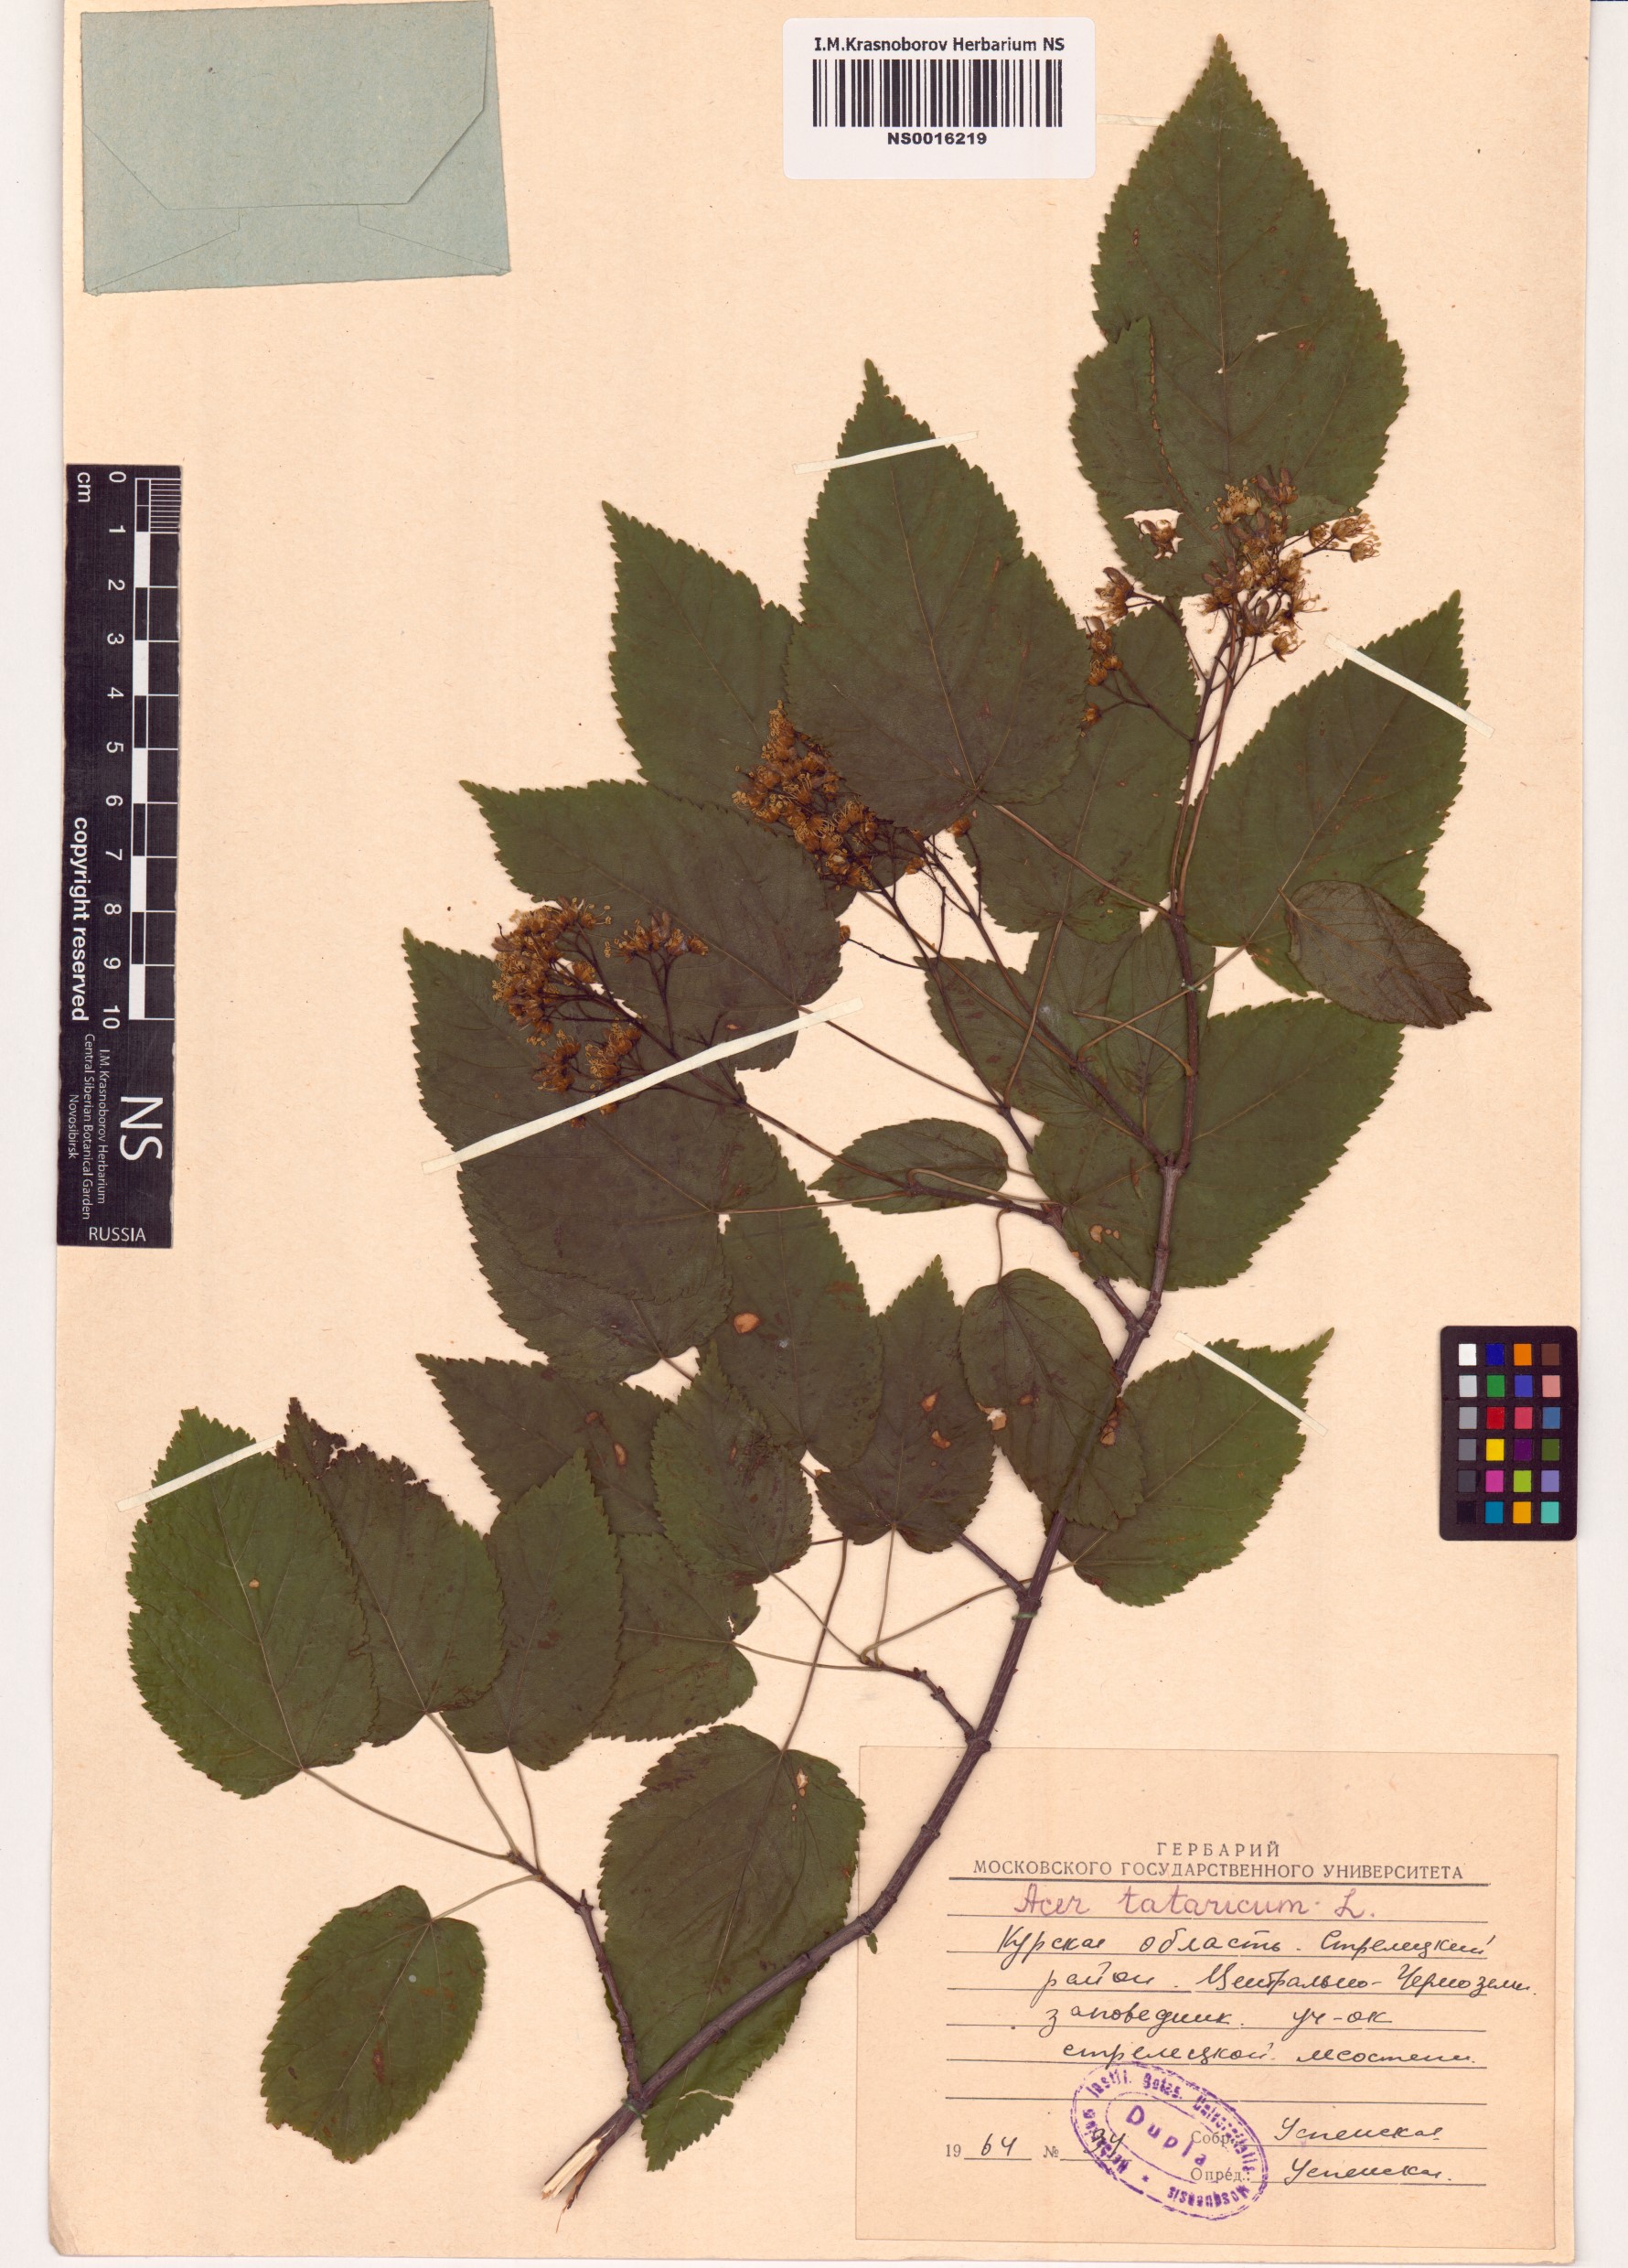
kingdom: Plantae
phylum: Tracheophyta
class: Magnoliopsida
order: Sapindales
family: Sapindaceae
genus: Acer
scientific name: Acer tataricum
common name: Tartar maple
